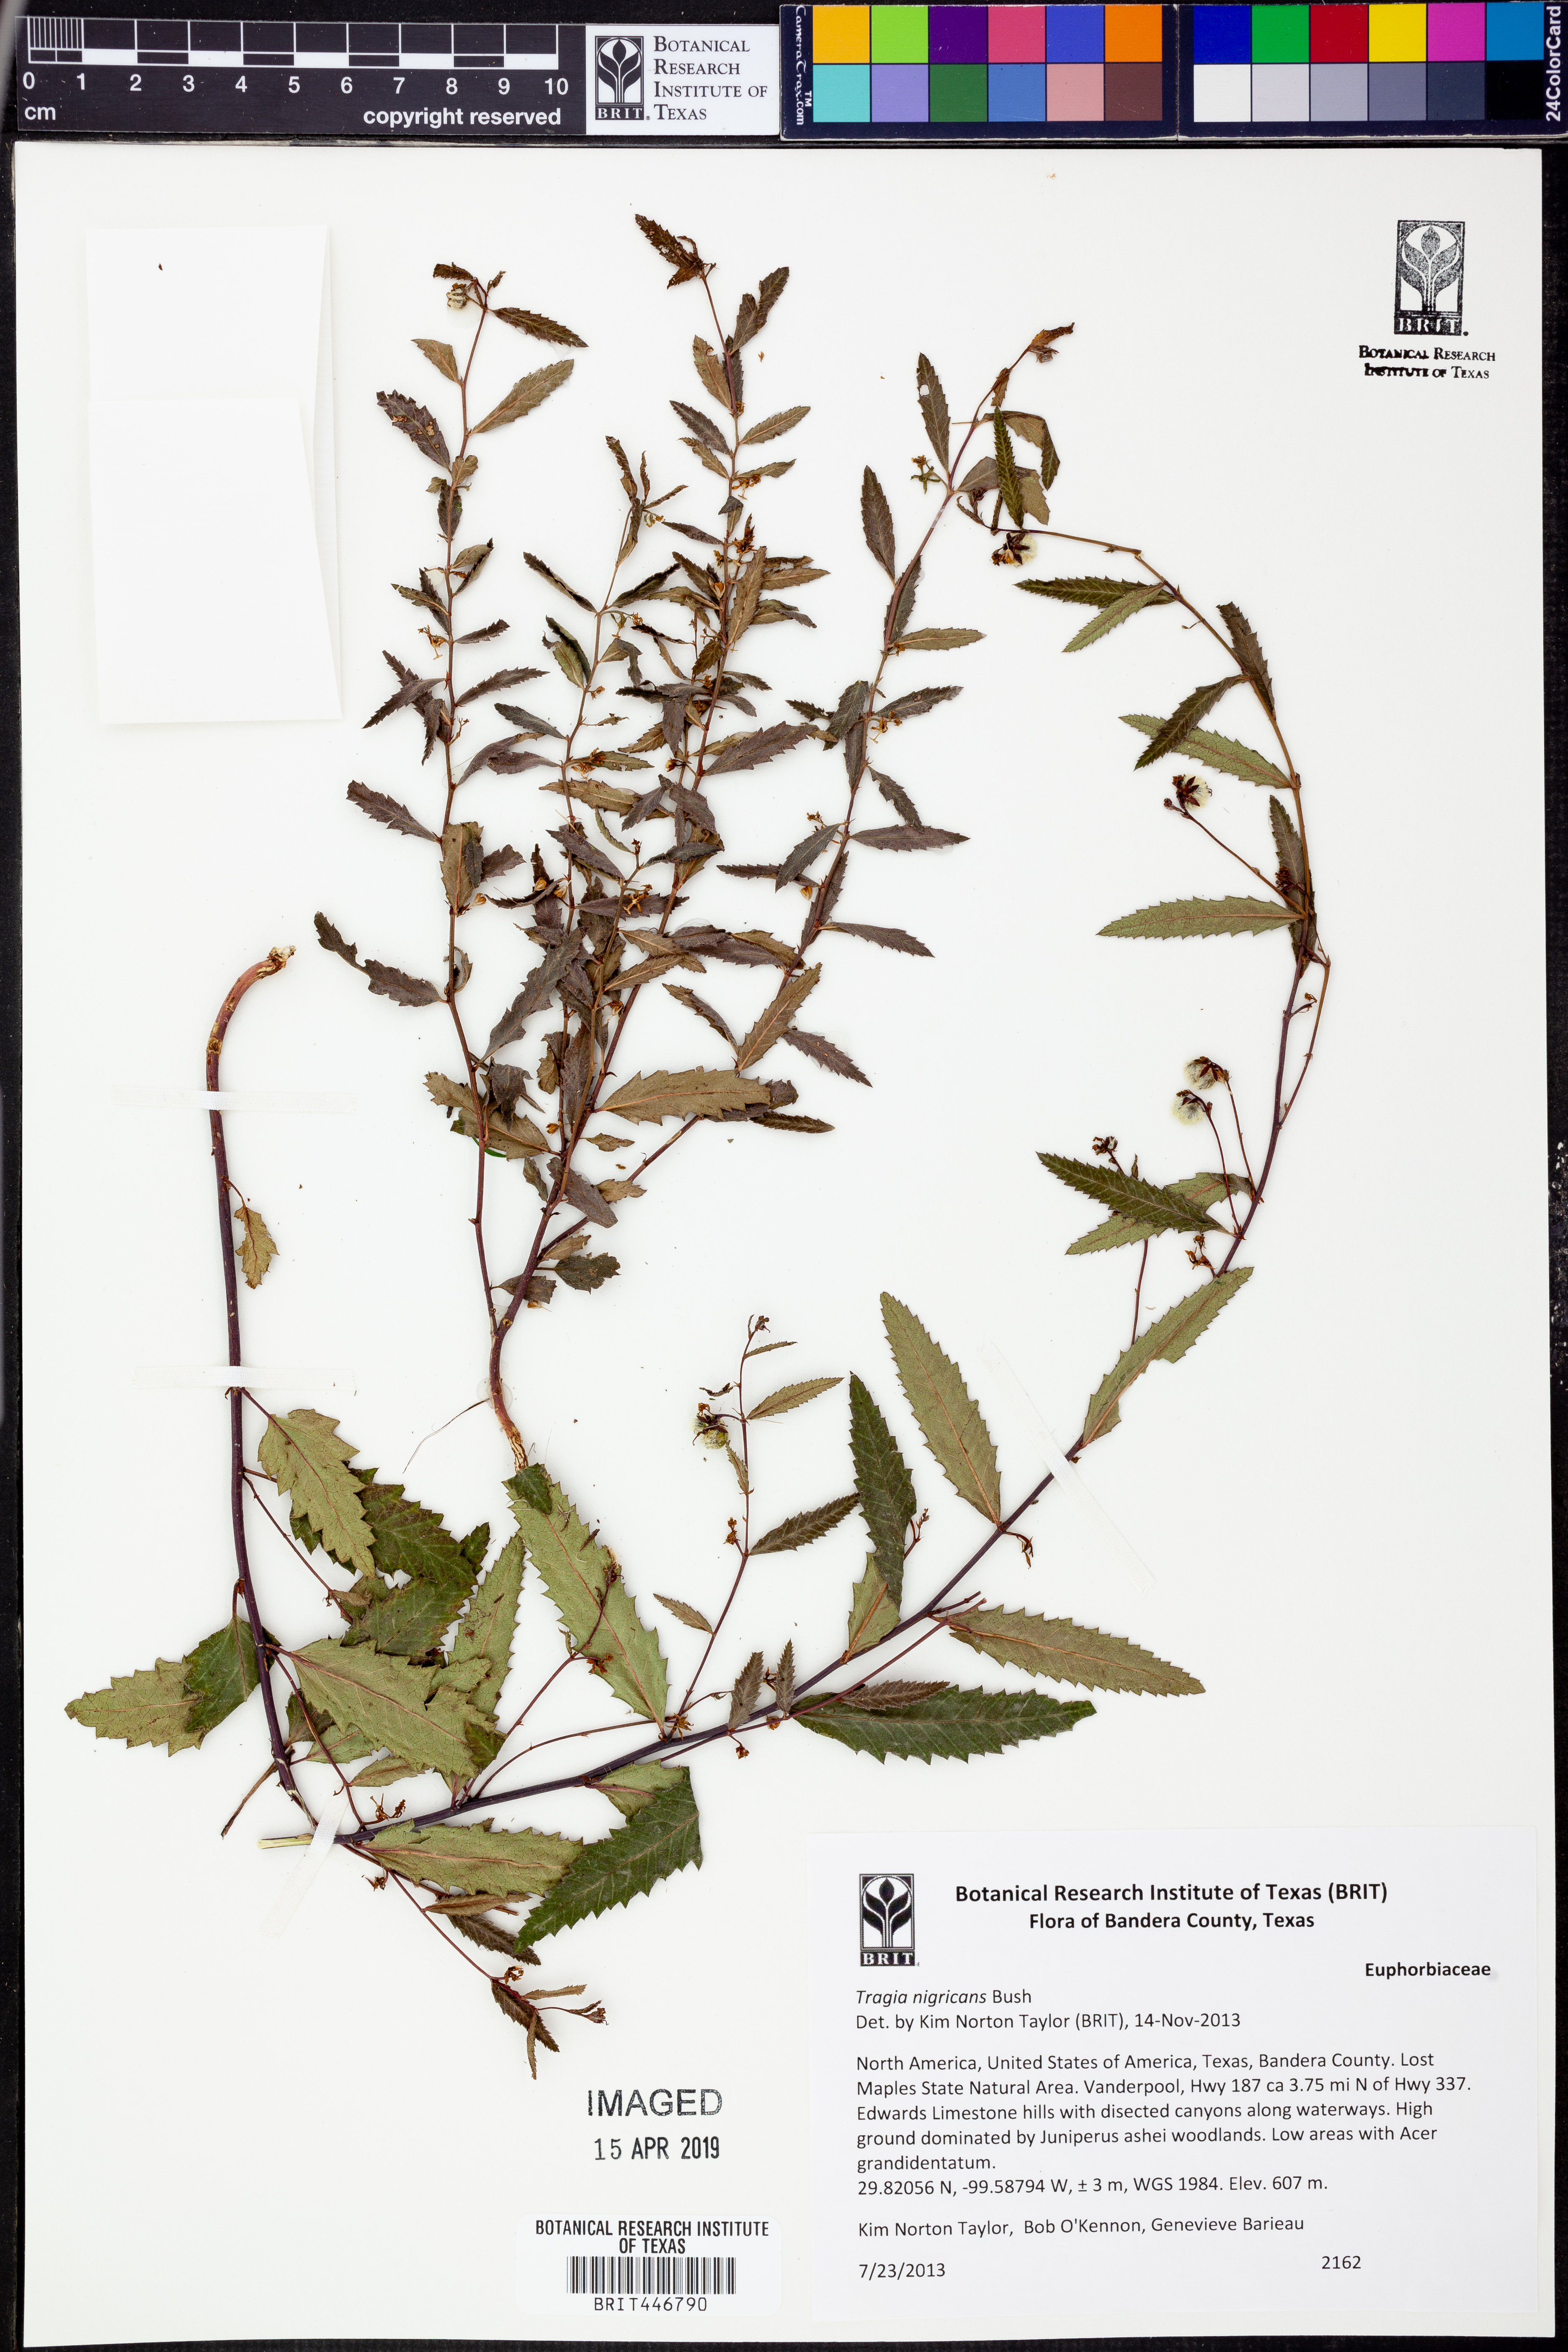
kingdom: Plantae
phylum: Tracheophyta
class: Magnoliopsida
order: Malpighiales
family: Euphorbiaceae
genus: Tragia
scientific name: Tragia nigricans
